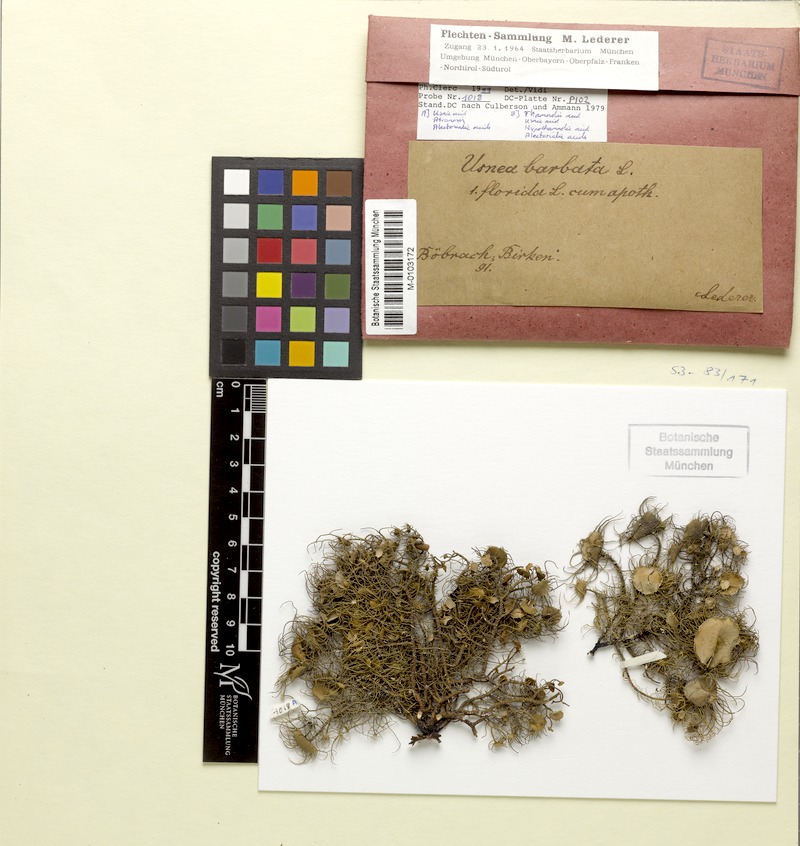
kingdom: Fungi
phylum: Ascomycota
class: Lecanoromycetes
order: Lecanorales
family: Parmeliaceae
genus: Usnea
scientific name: Usnea florida
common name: Witches' whiskers lichen
